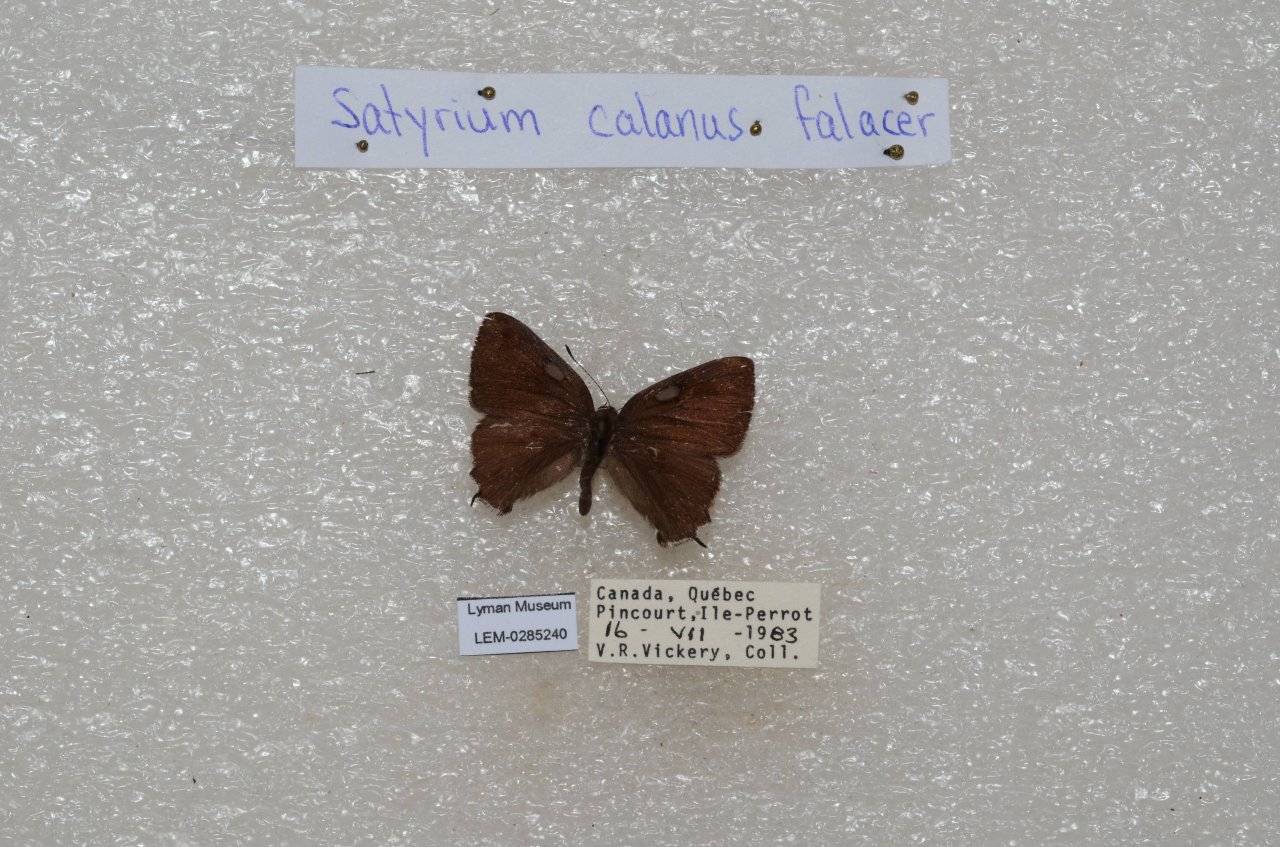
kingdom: Animalia
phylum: Arthropoda
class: Insecta
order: Lepidoptera
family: Lycaenidae
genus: Satyrium
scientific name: Satyrium calanus
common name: Banded Hairstreak
